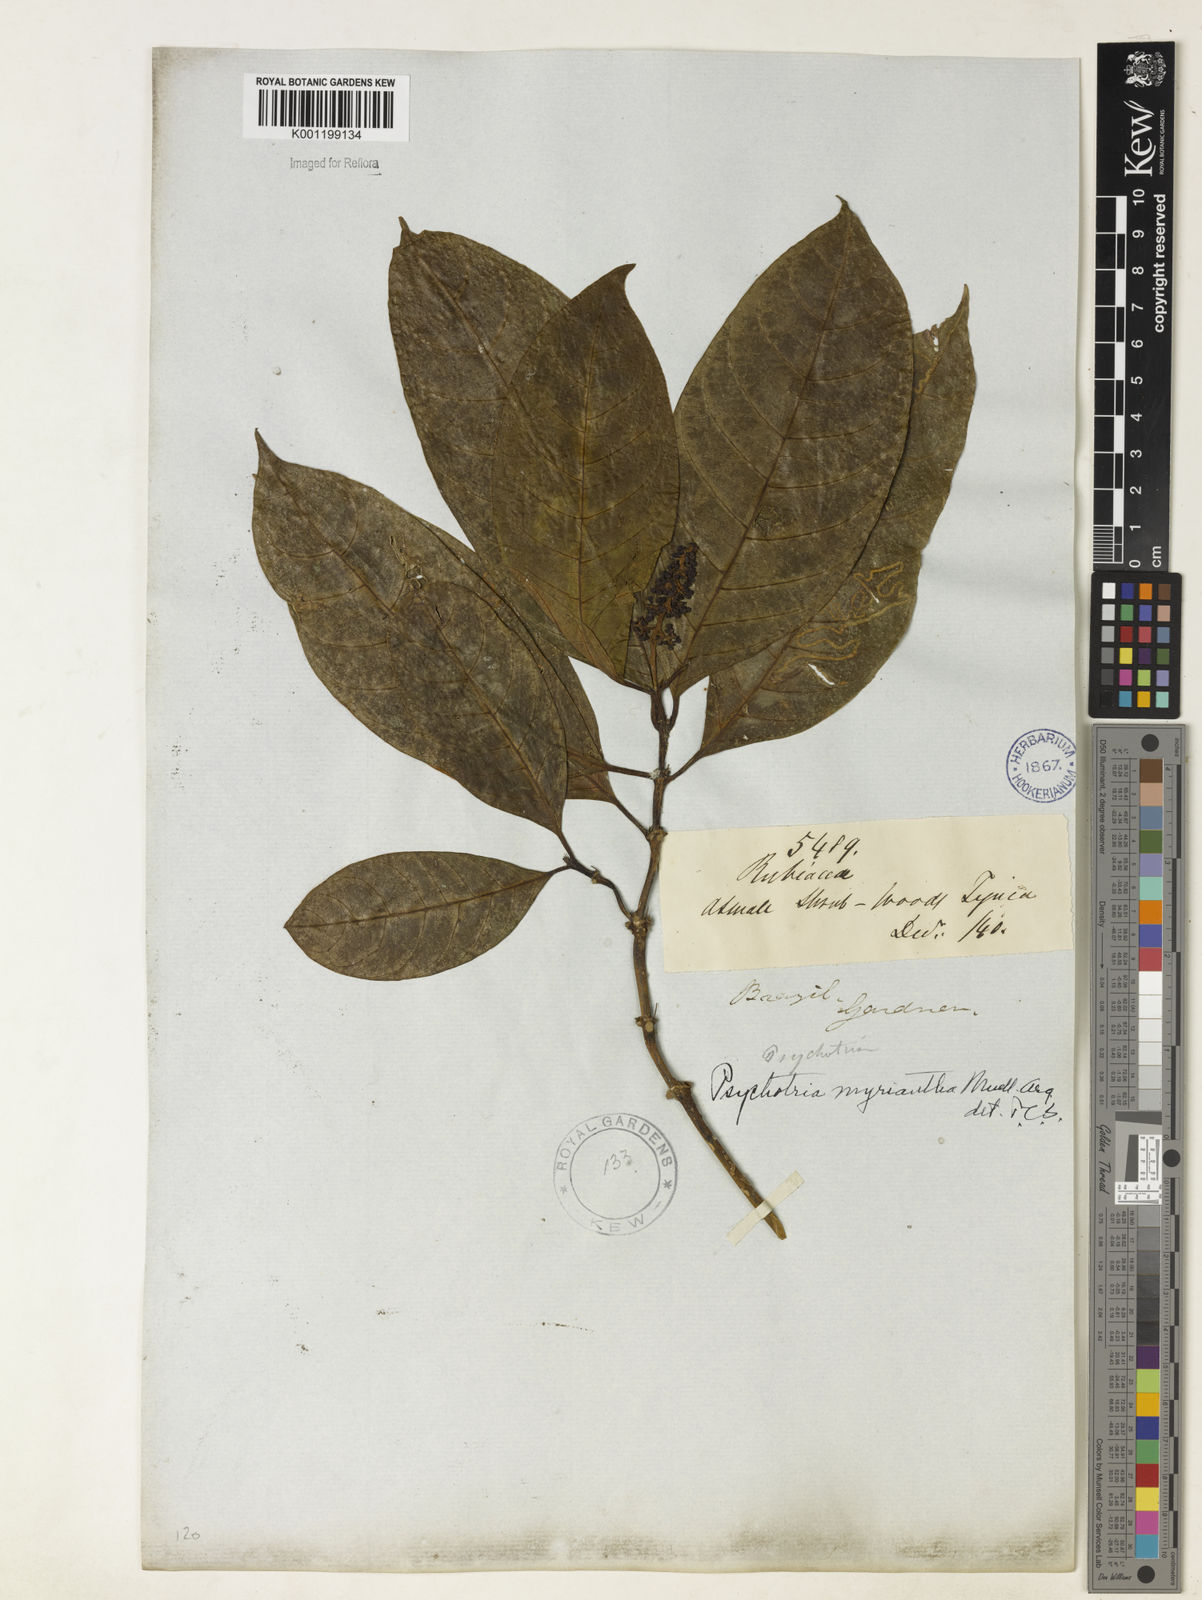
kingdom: Plantae
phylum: Tracheophyta
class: Magnoliopsida
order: Gentianales
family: Rubiaceae
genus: Psychotria
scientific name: Psychotria
